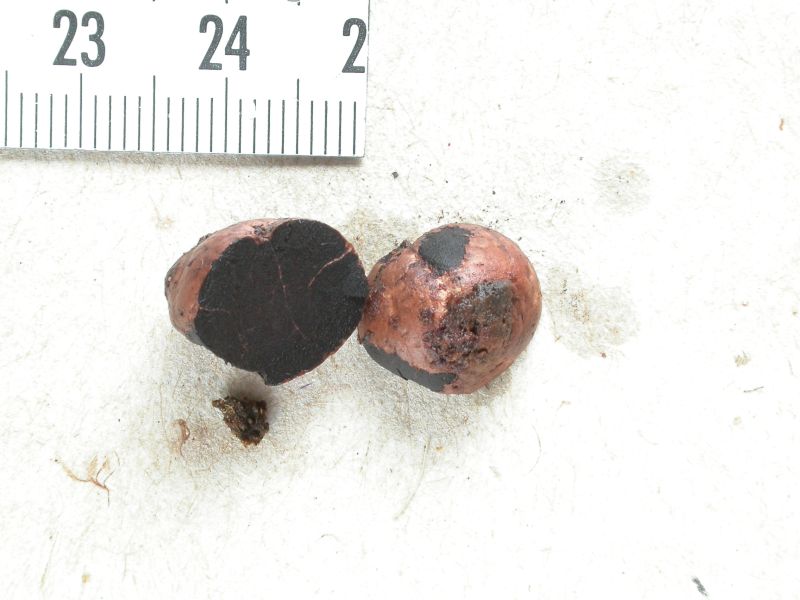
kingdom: Fungi
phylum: Ascomycota
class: Eurotiomycetes
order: Eurotiales
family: Elaphomycetaceae
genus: Elaphomyces
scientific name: Elaphomyces granulatus
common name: grynet hjortetrøffel
